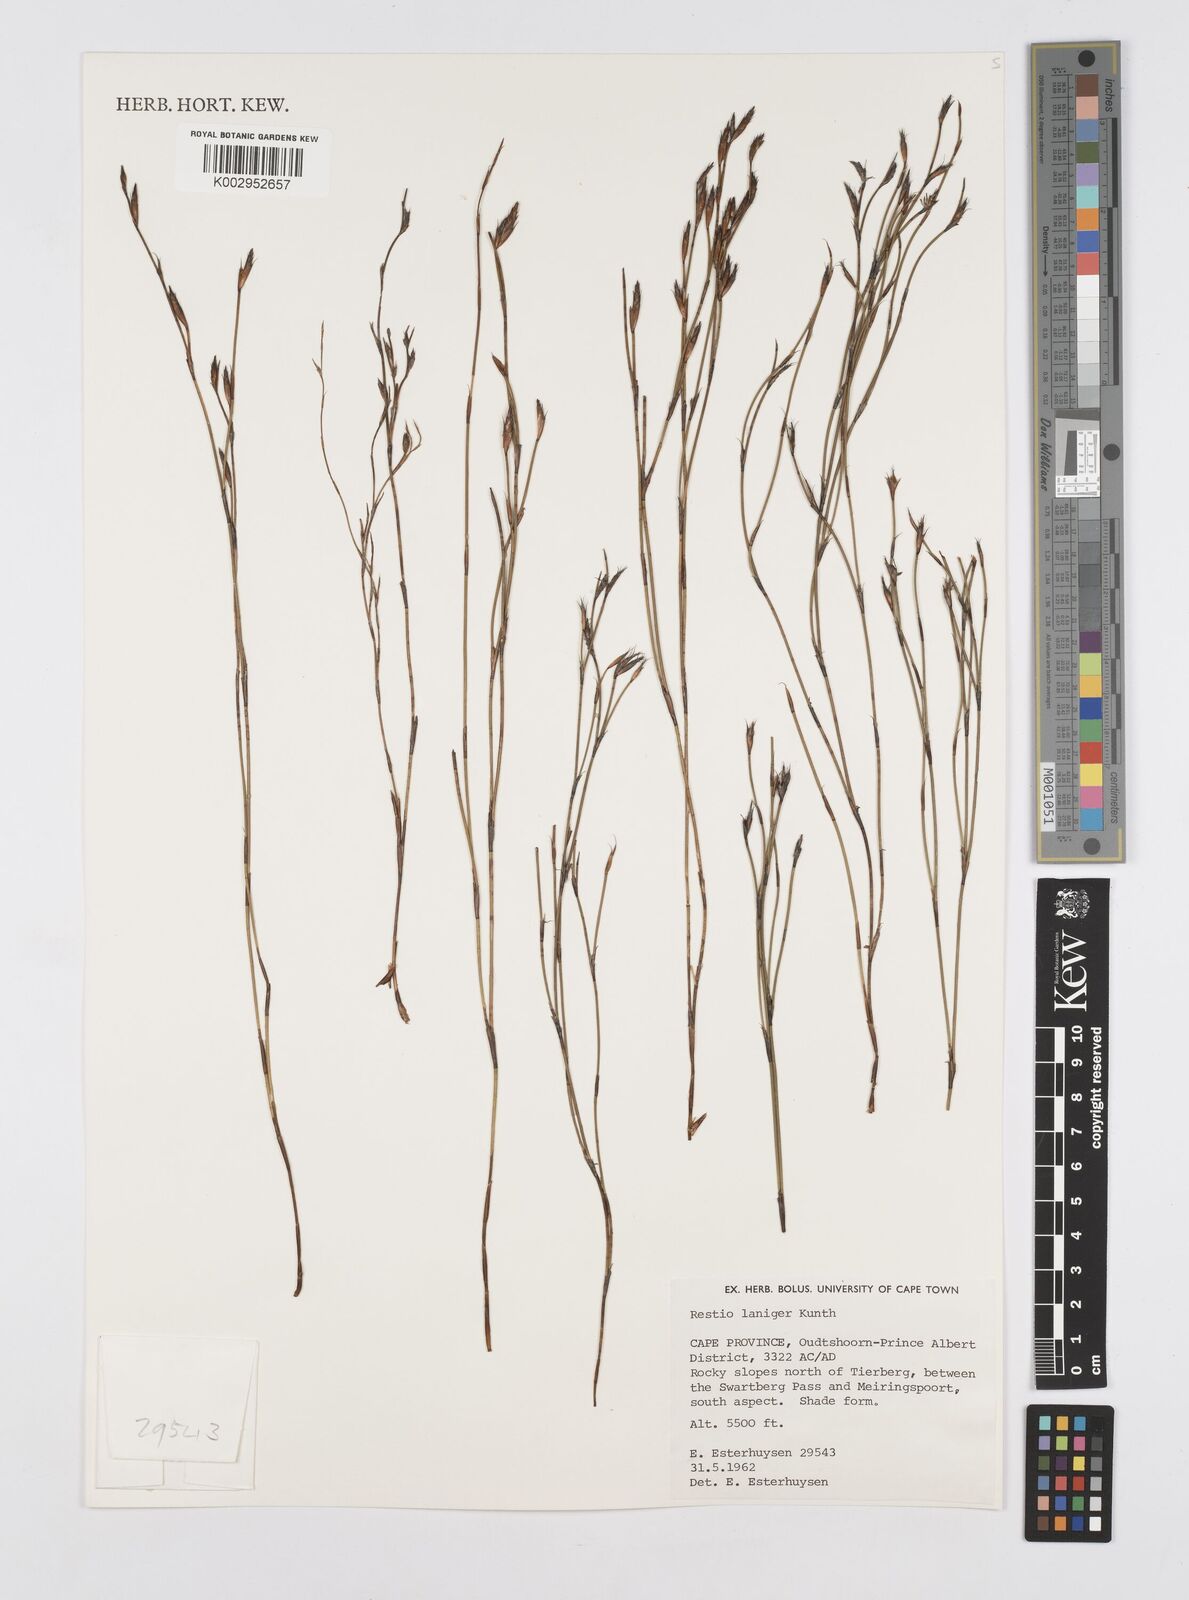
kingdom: Plantae
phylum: Tracheophyta
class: Liliopsida
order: Poales
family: Restionaceae
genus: Restio
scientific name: Restio laniger
